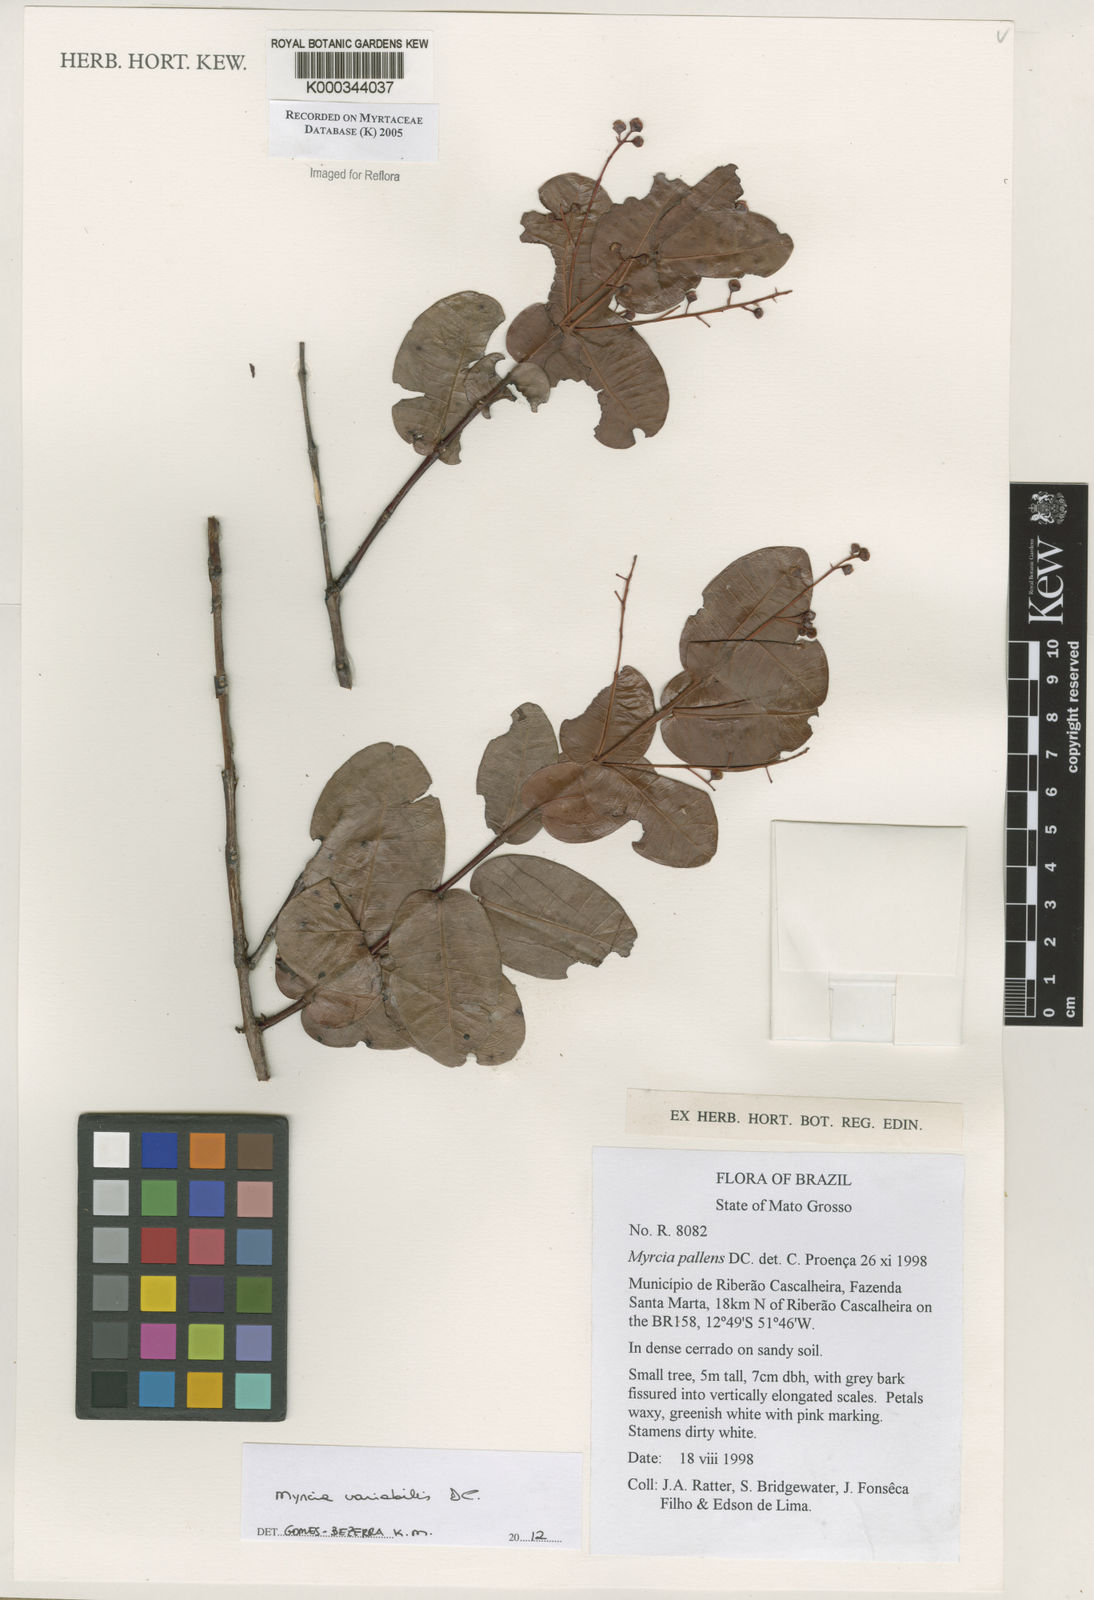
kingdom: Plantae
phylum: Tracheophyta
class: Magnoliopsida
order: Myrtales
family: Myrtaceae
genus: Myrcia
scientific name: Myrcia guianensis
